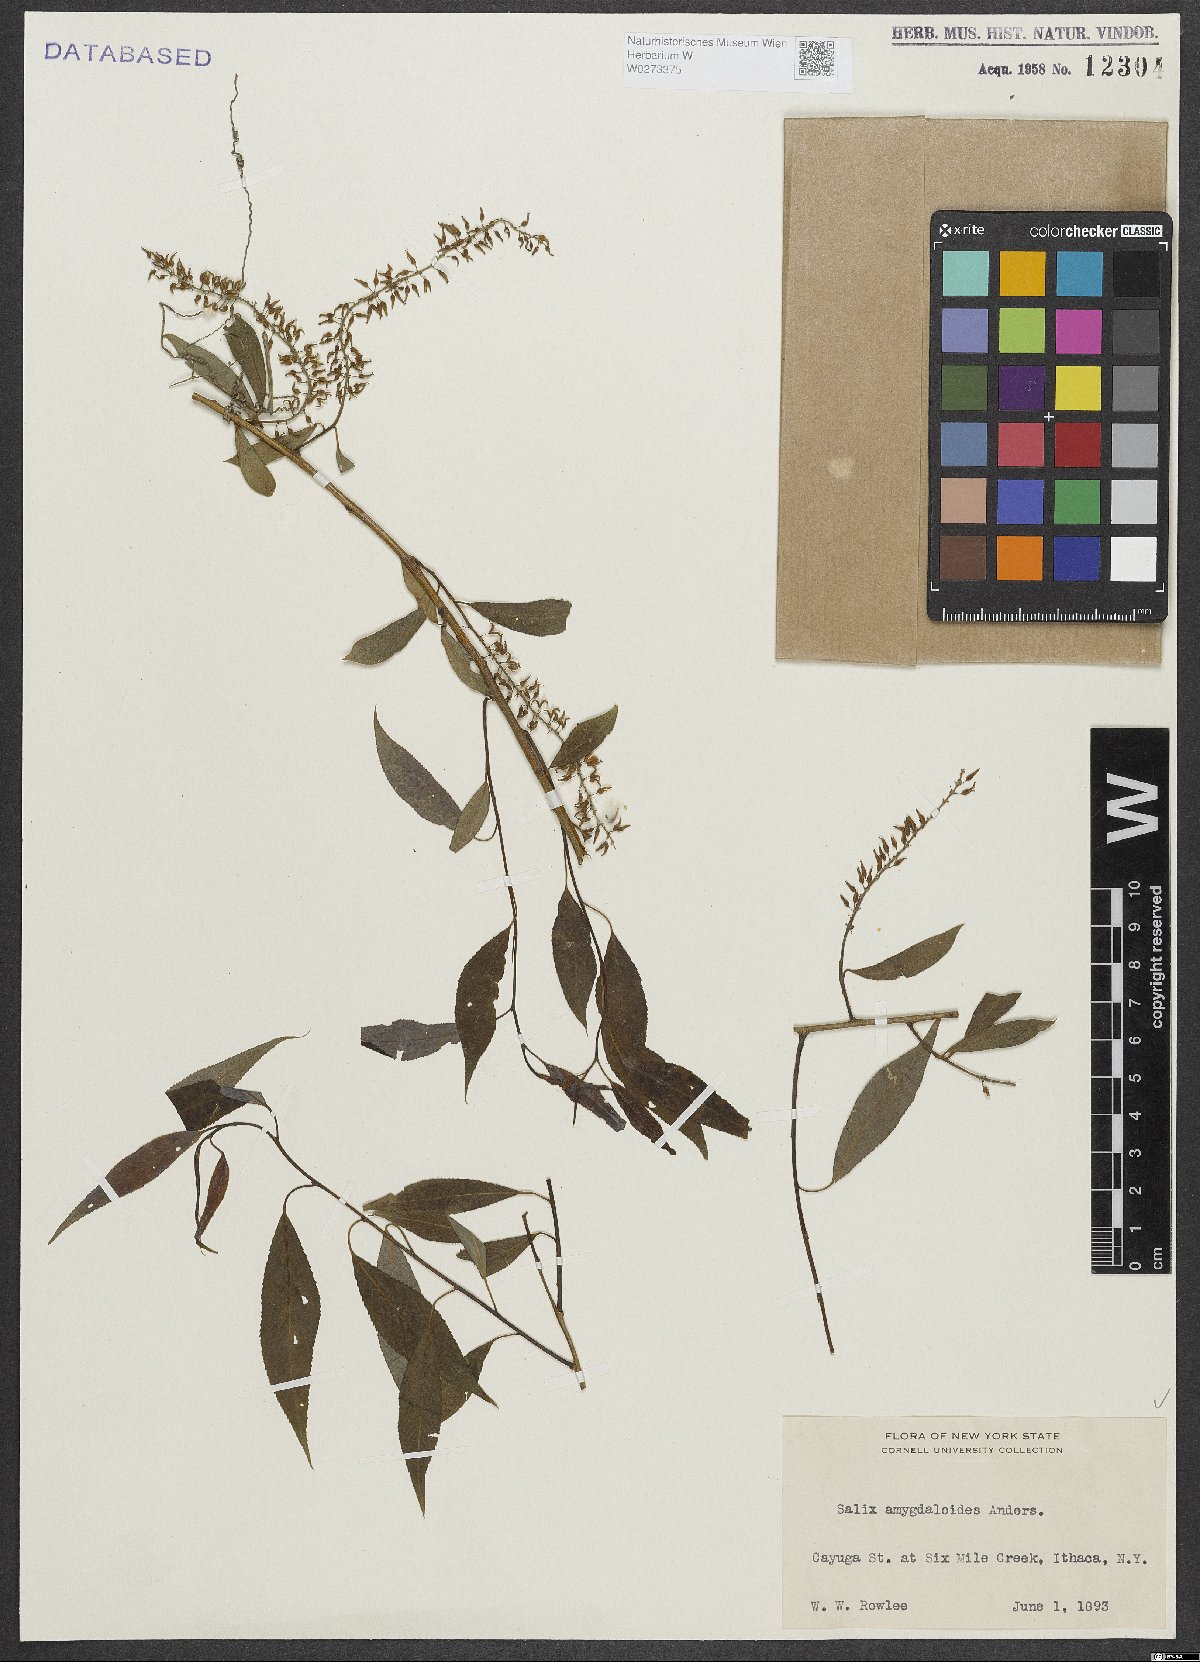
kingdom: Plantae
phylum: Tracheophyta
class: Magnoliopsida
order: Malpighiales
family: Salicaceae
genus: Salix
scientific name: Salix amygdaloides
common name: Peach leaf willow
